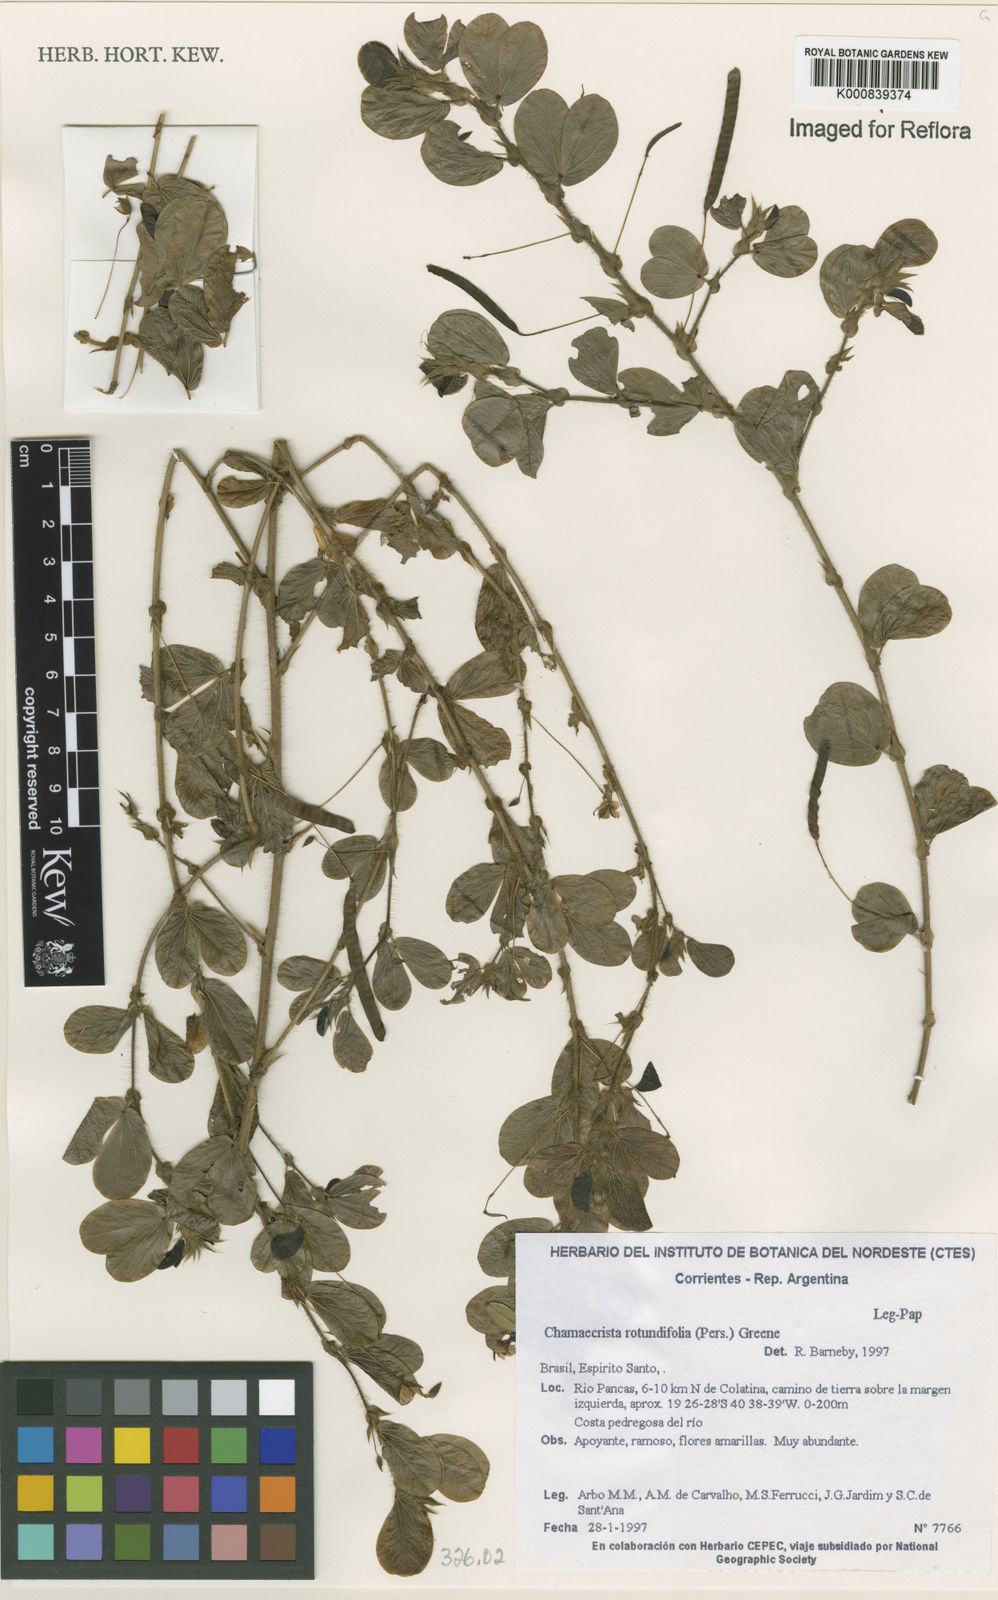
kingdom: Plantae
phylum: Tracheophyta
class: Magnoliopsida
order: Fabales
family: Fabaceae
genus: Chamaecrista
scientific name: Chamaecrista rotundifolia
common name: Round-leaf cassia
